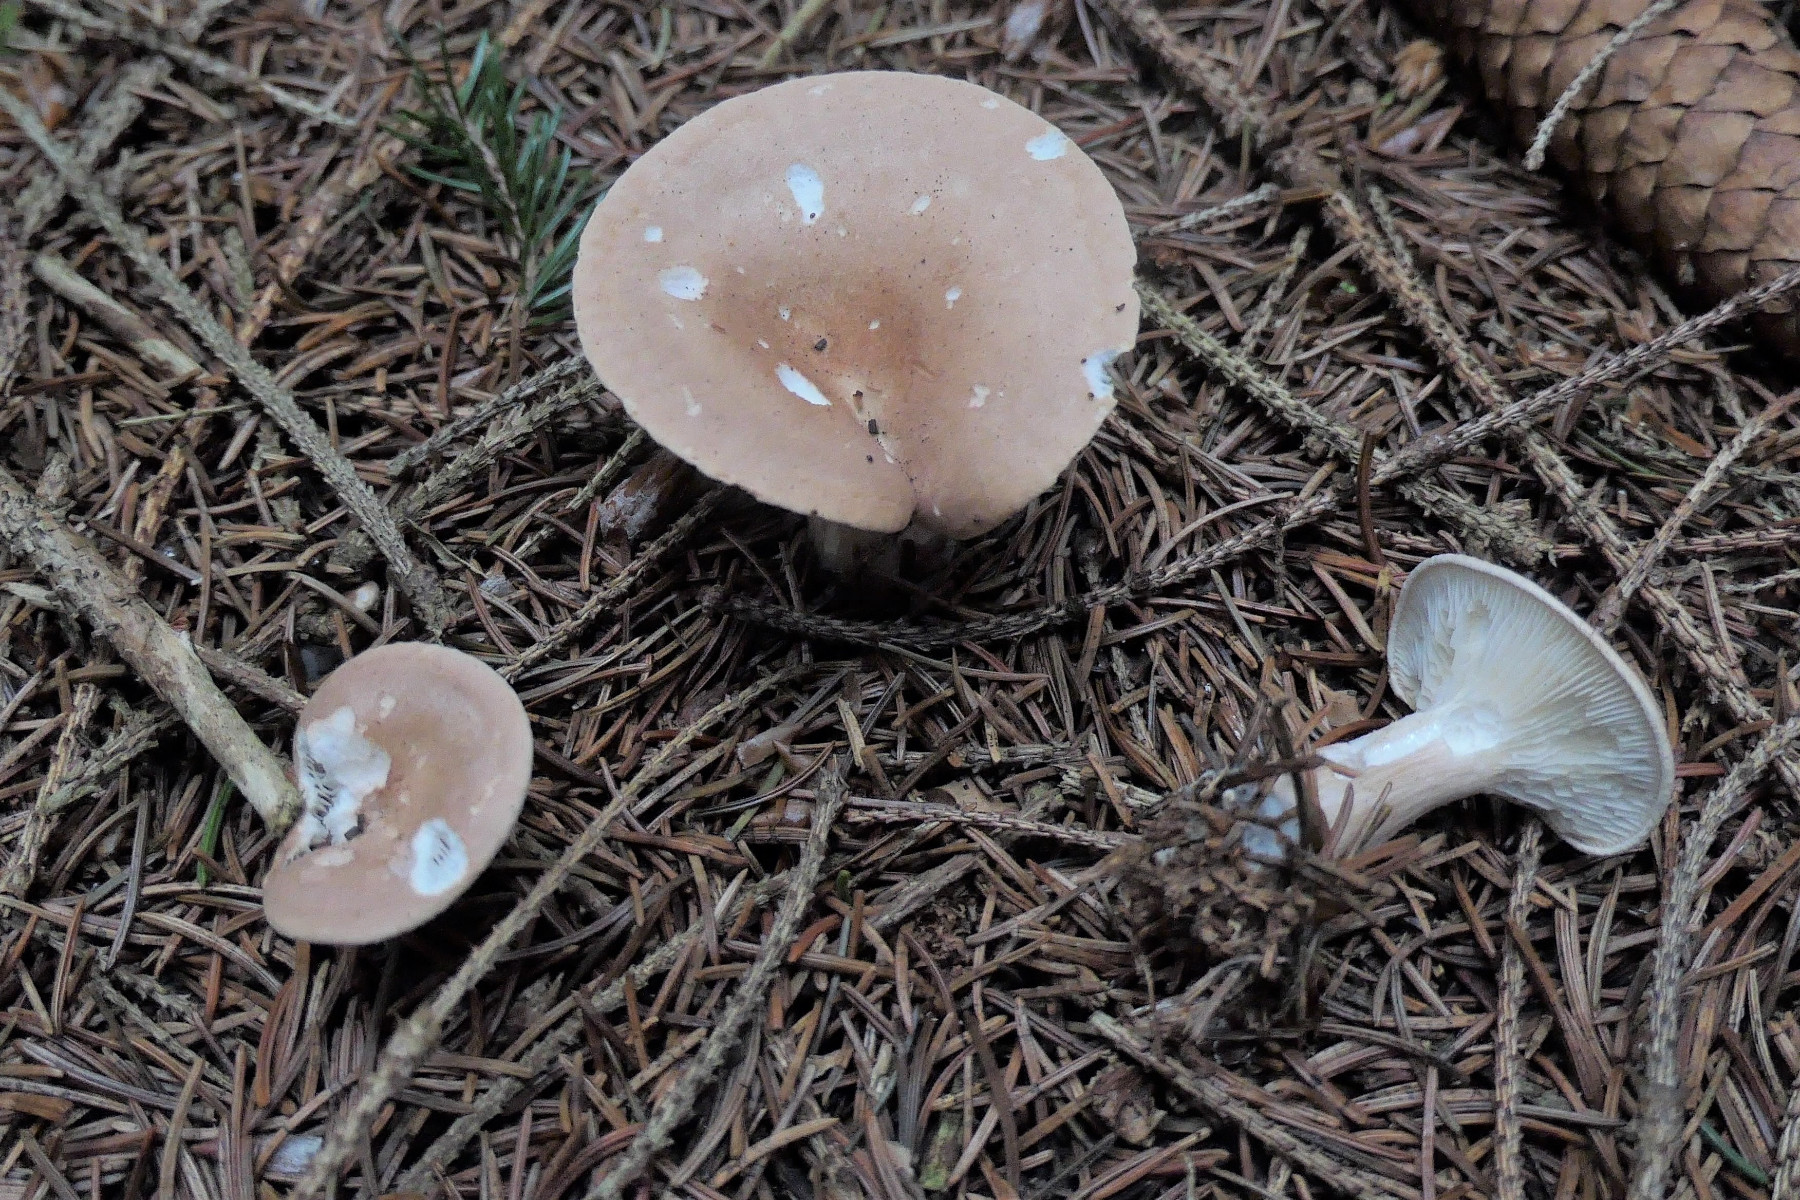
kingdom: Fungi
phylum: Basidiomycota
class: Agaricomycetes
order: Agaricales
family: Tricholomataceae
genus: Infundibulicybe
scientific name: Infundibulicybe gibba
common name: almindelig tragthat
